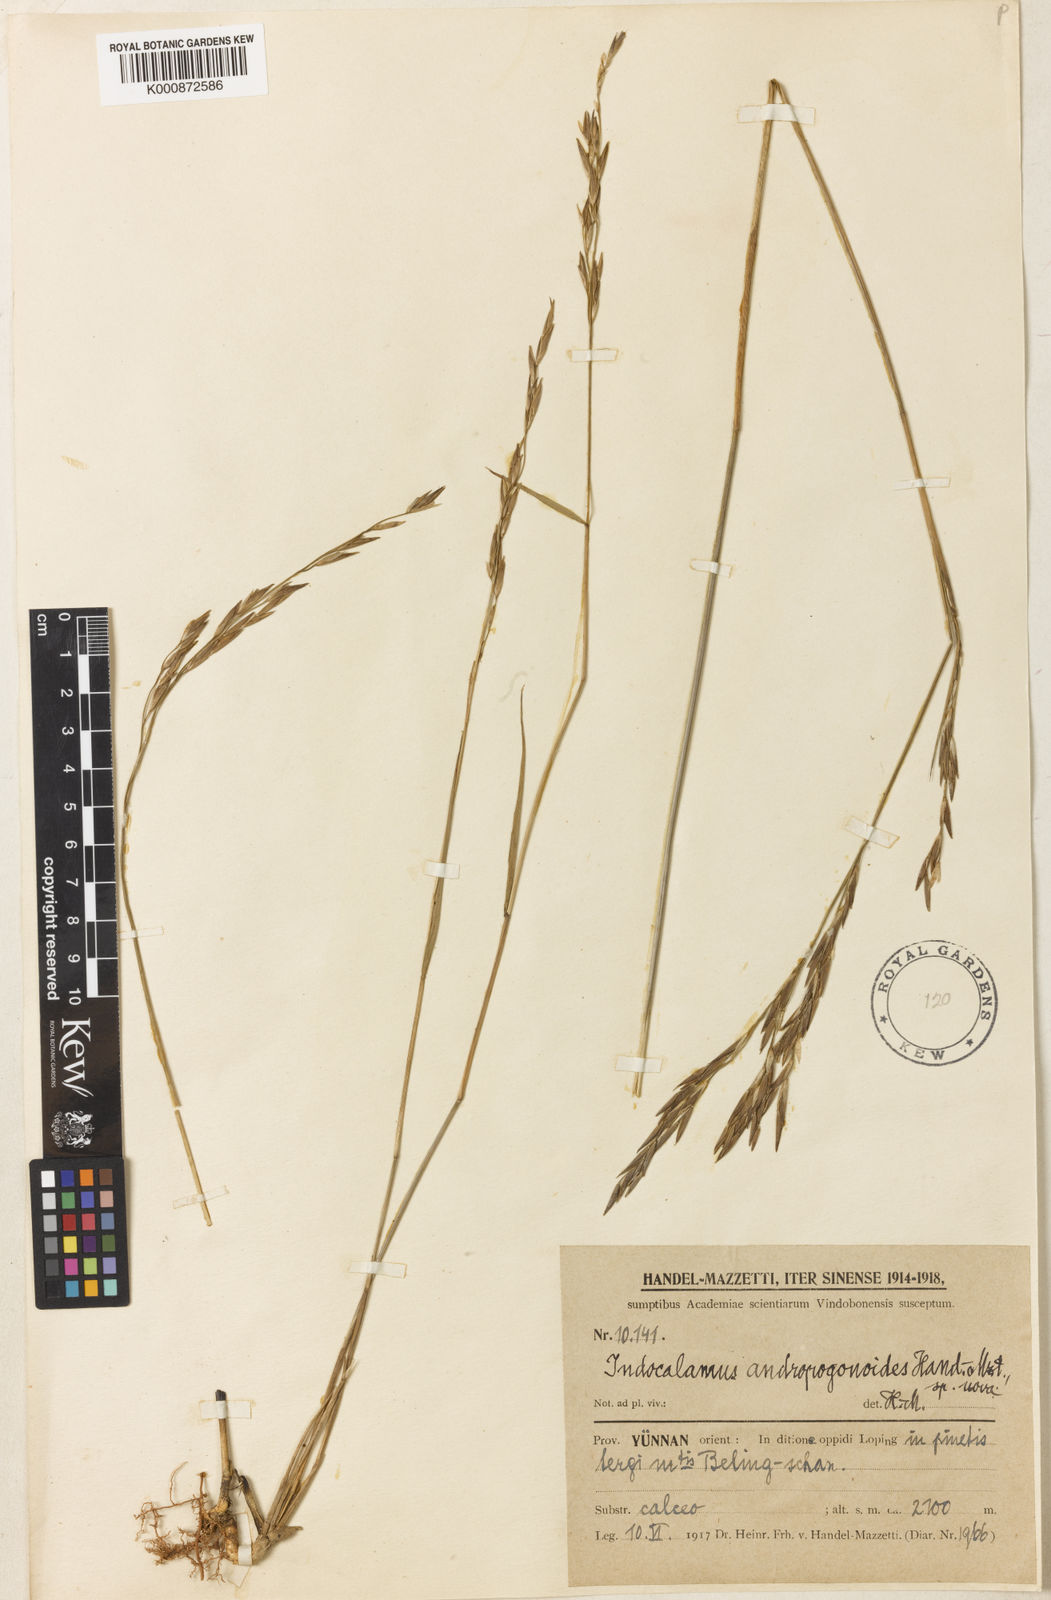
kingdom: Plantae
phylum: Tracheophyta
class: Liliopsida
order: Poales
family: Poaceae
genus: Yushania
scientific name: Yushania andropogonoides
